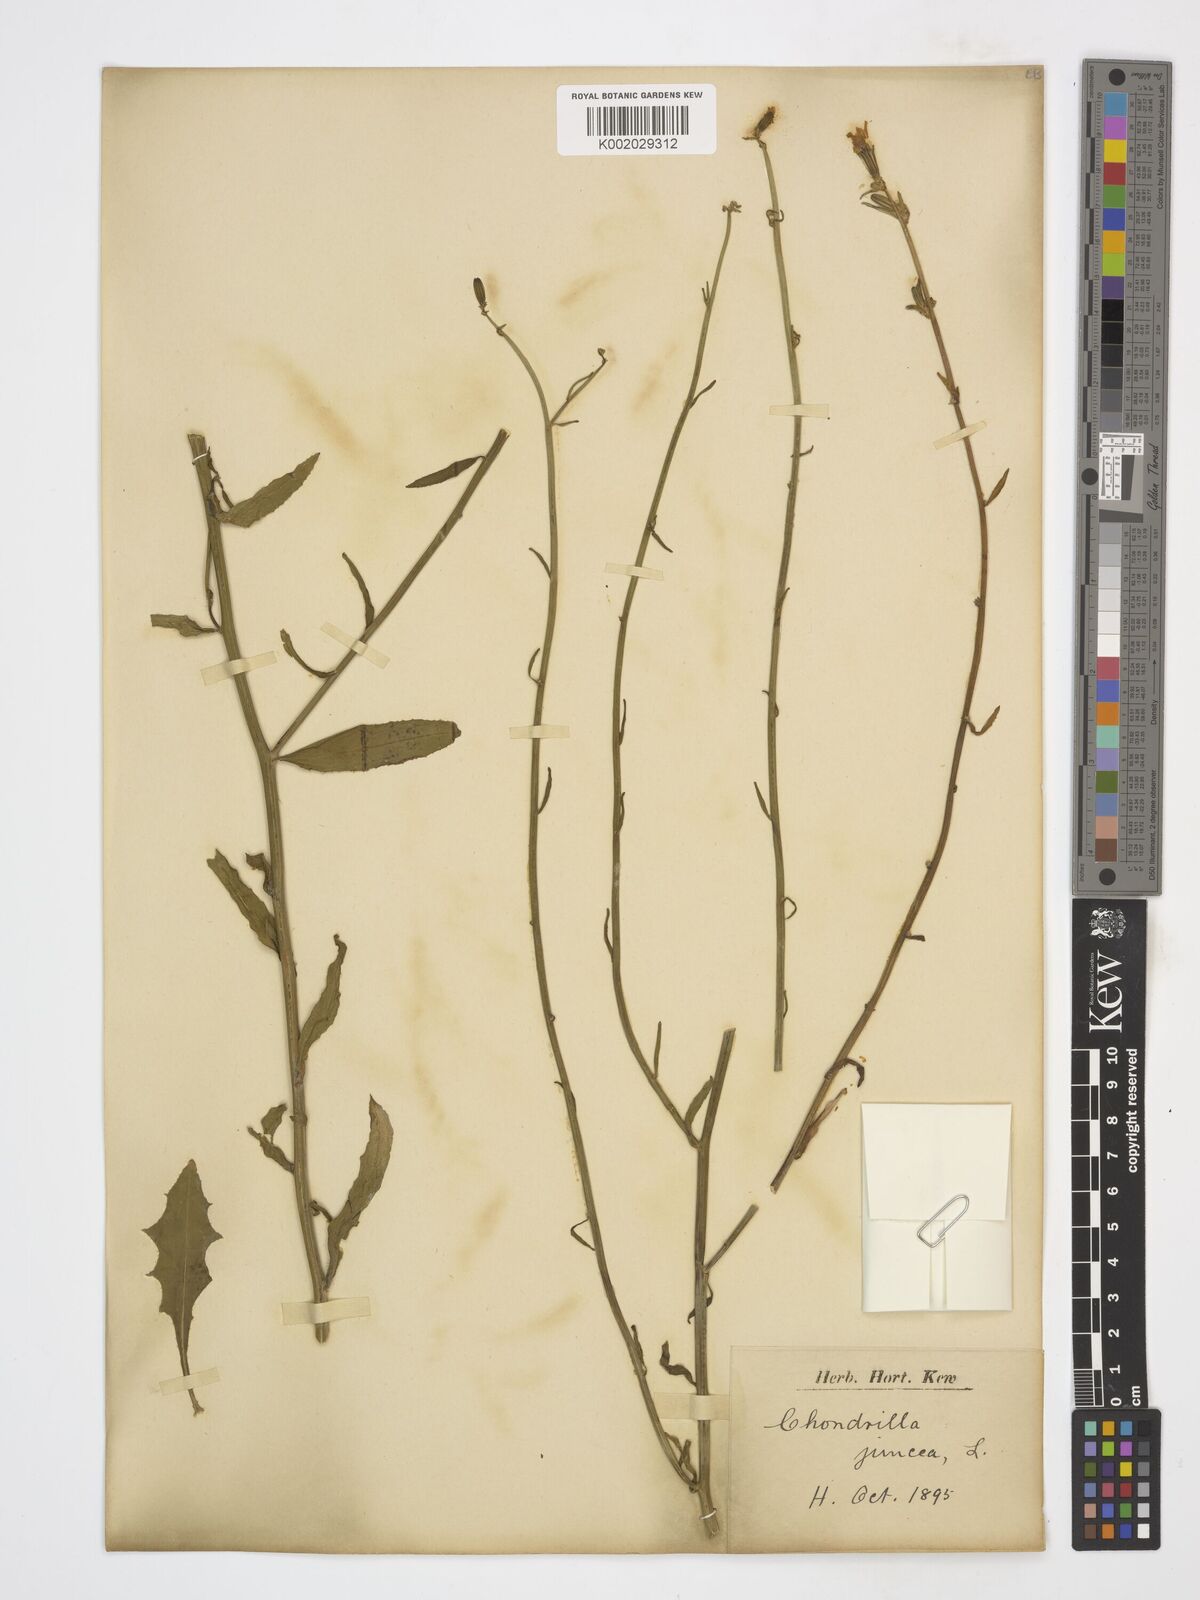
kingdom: Plantae
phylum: Tracheophyta
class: Magnoliopsida
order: Asterales
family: Asteraceae
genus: Chondrilla
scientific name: Chondrilla juncea
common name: Skeleton weed
